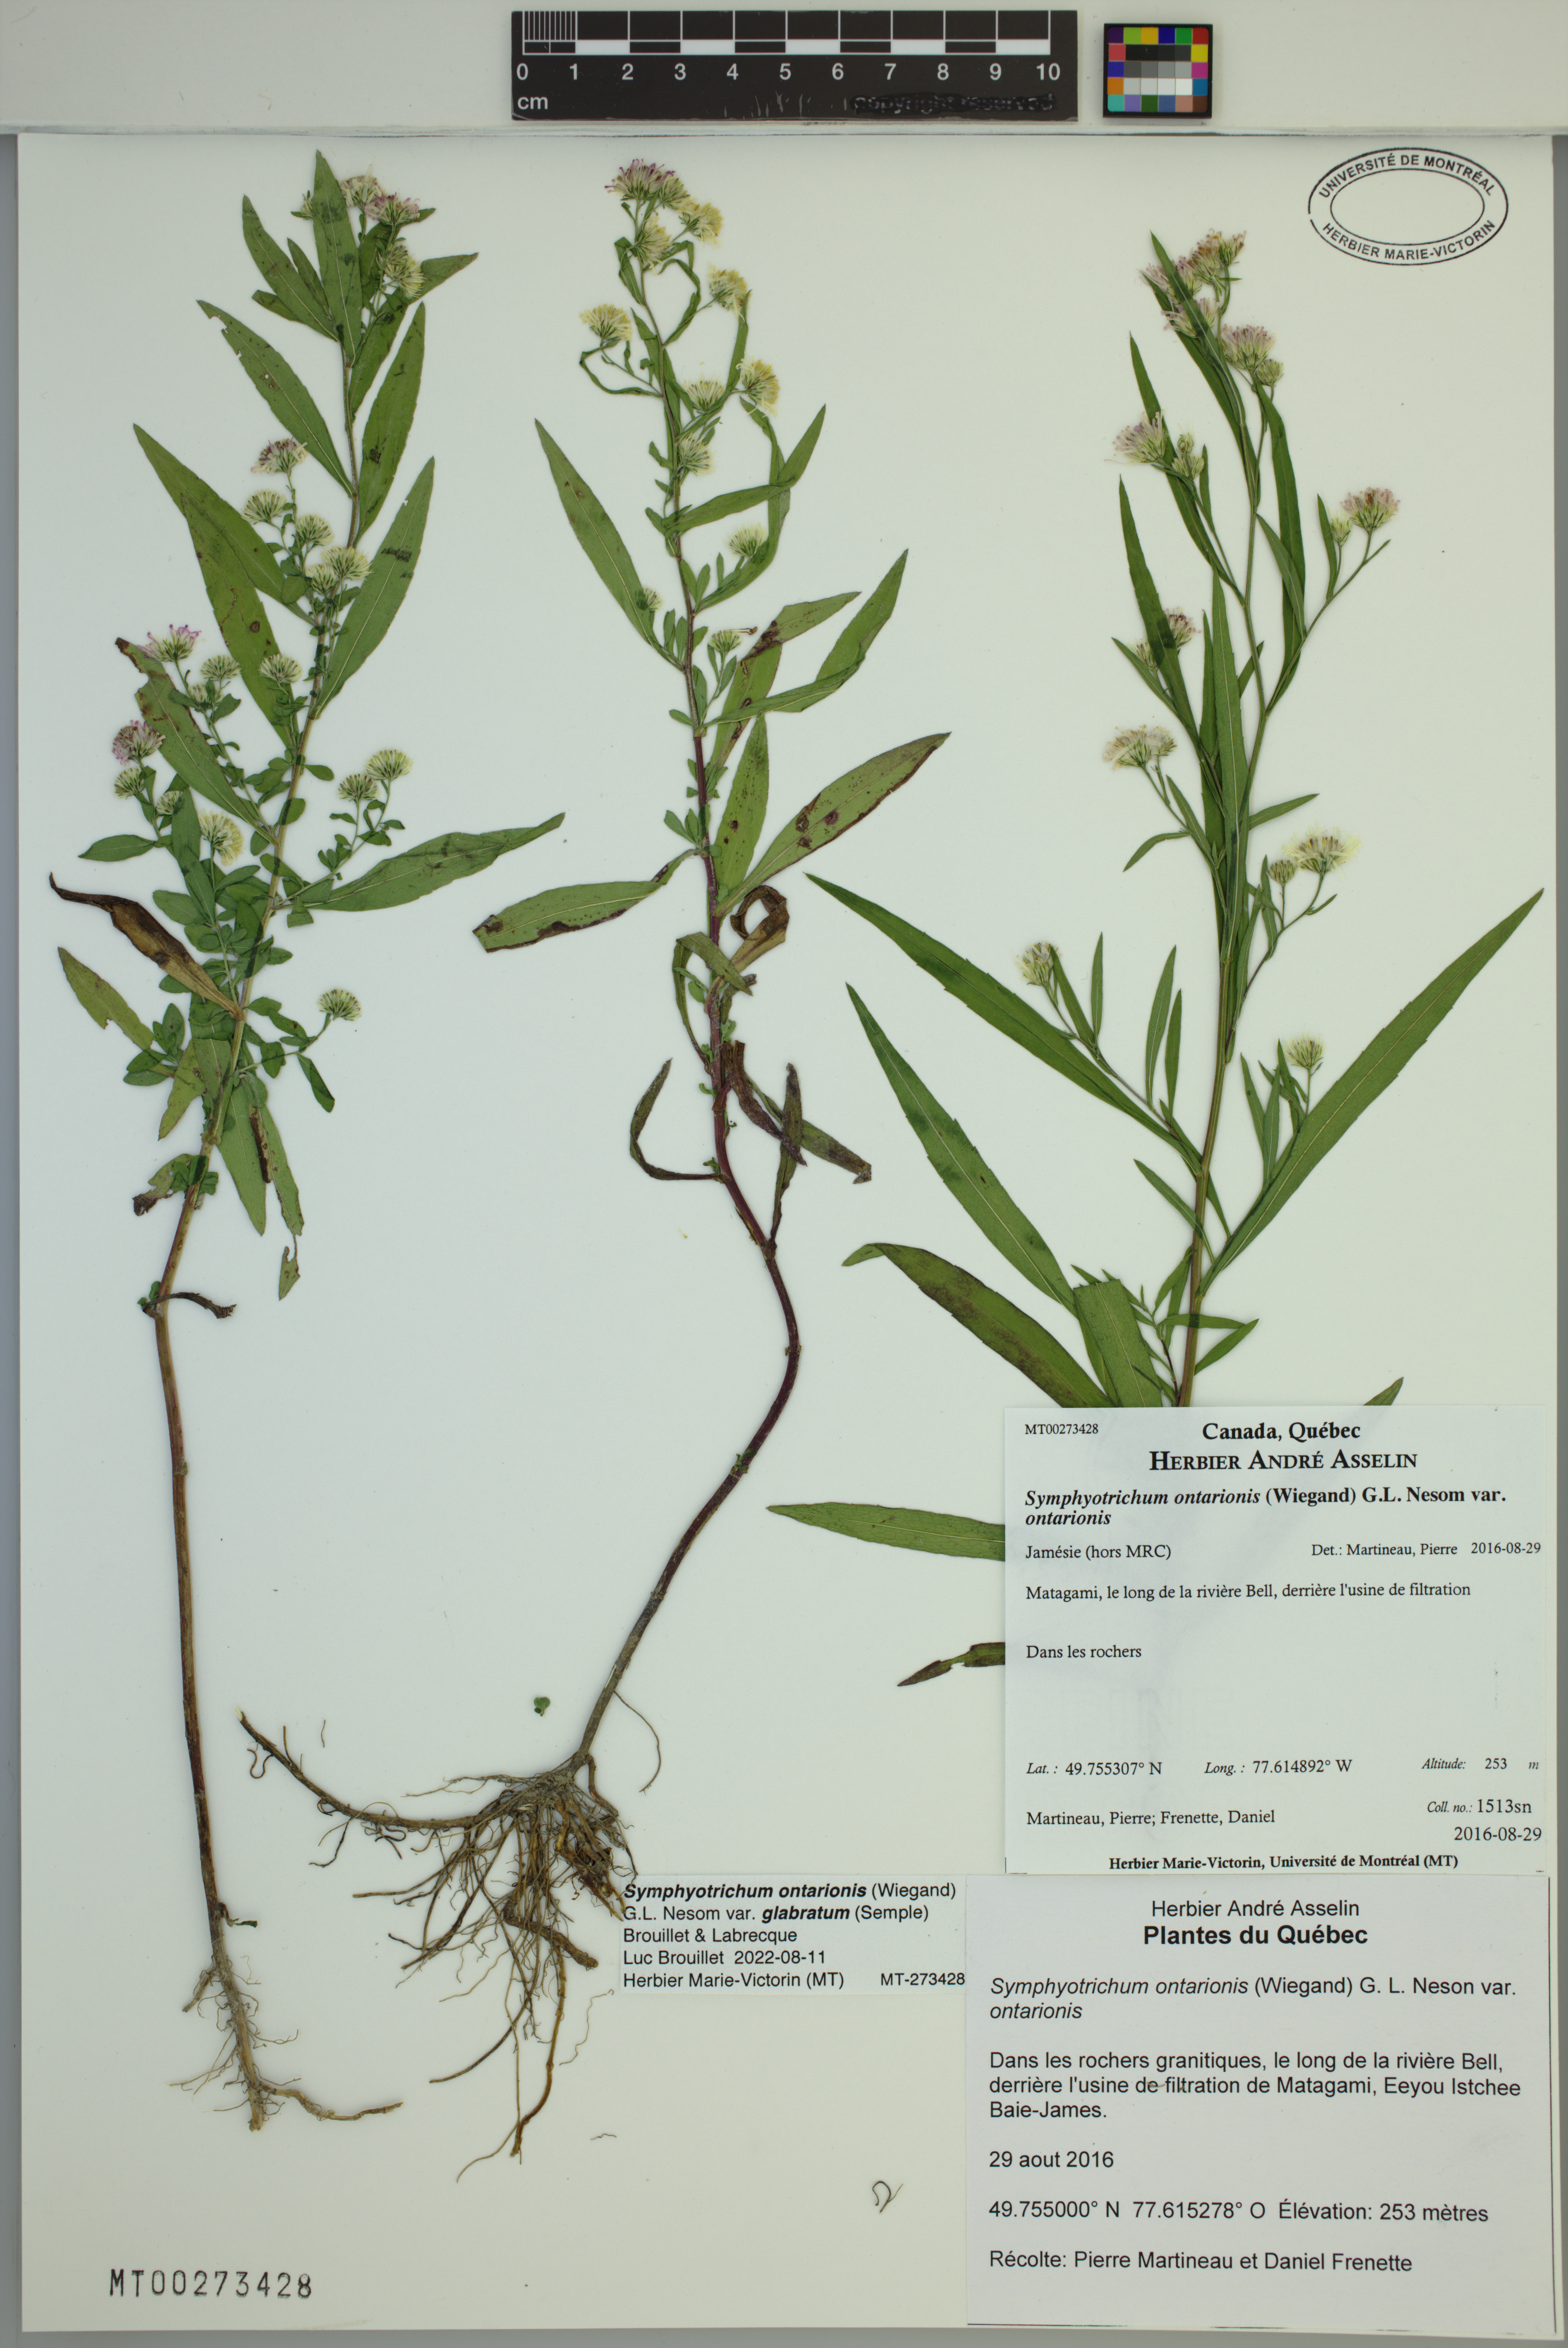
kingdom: Plantae
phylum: Tracheophyta
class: Magnoliopsida
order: Asterales
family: Asteraceae
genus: Symphyotrichum
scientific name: Symphyotrichum ontarionis
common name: Bottomland aster
